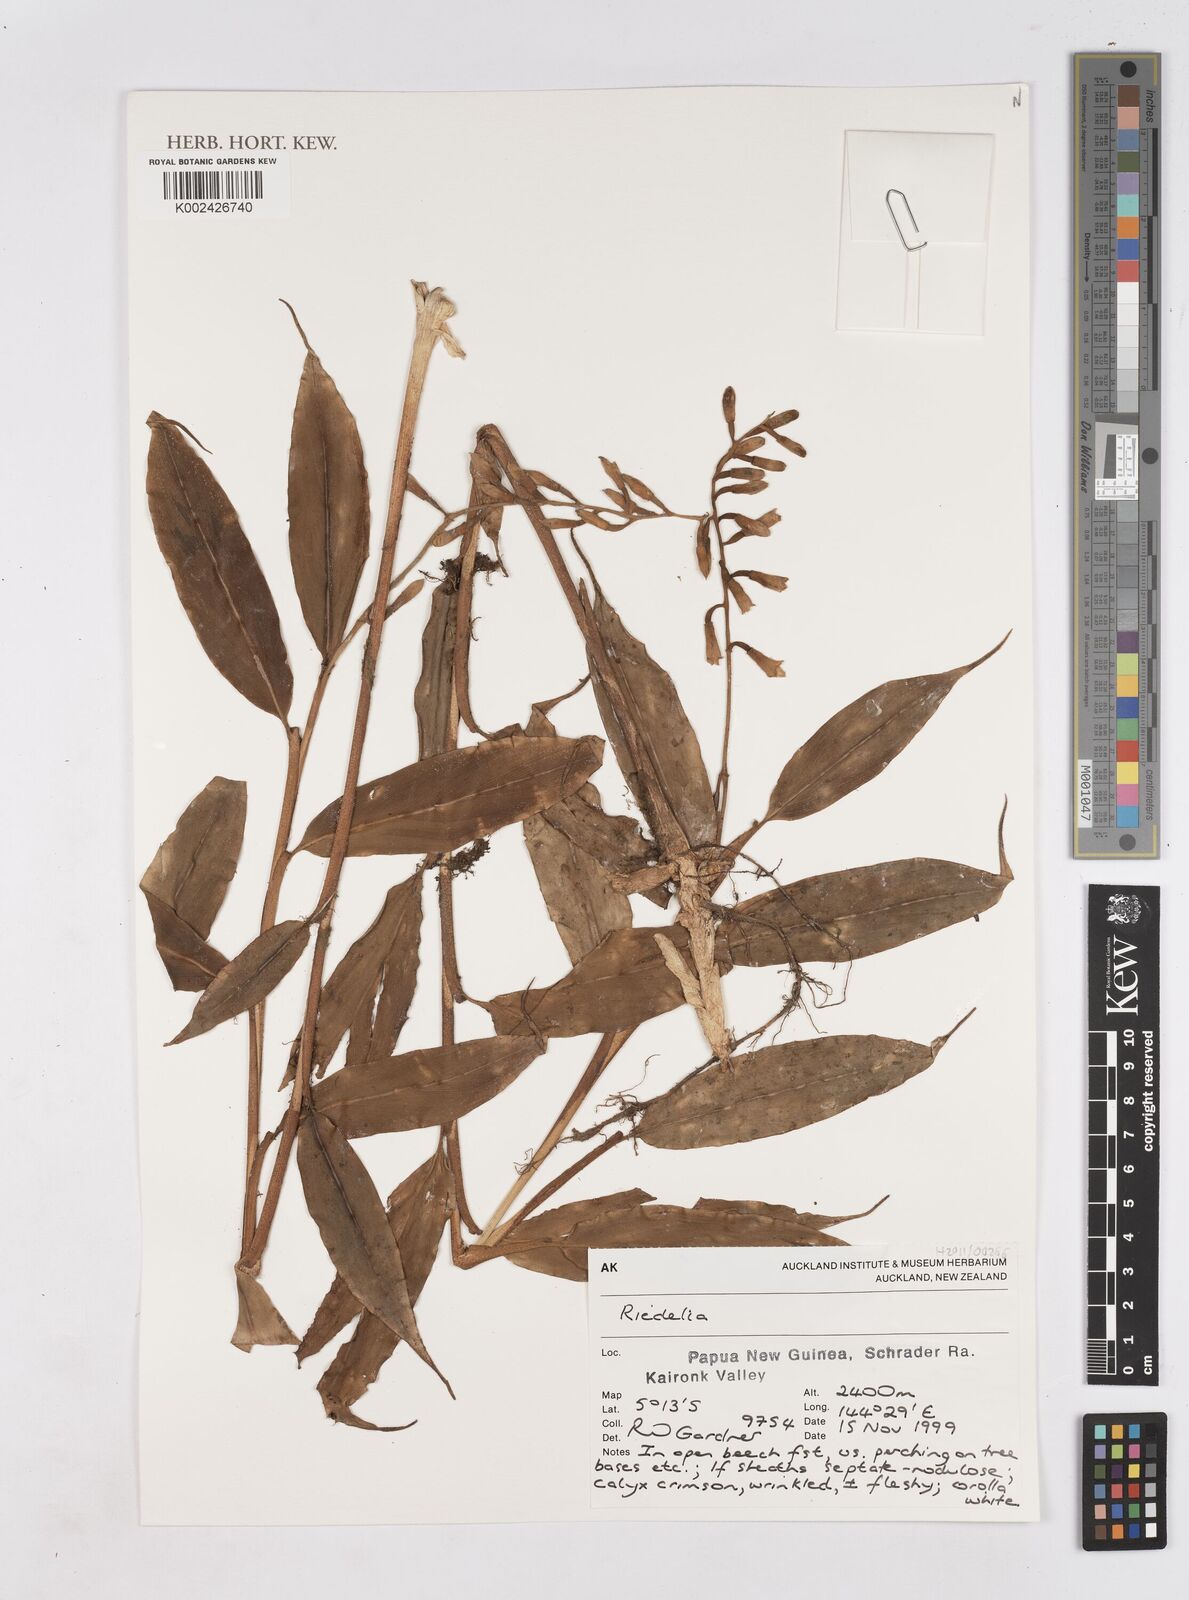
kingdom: Plantae
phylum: Tracheophyta
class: Liliopsida
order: Zingiberales
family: Zingiberaceae
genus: Riedelia
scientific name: Riedelia
